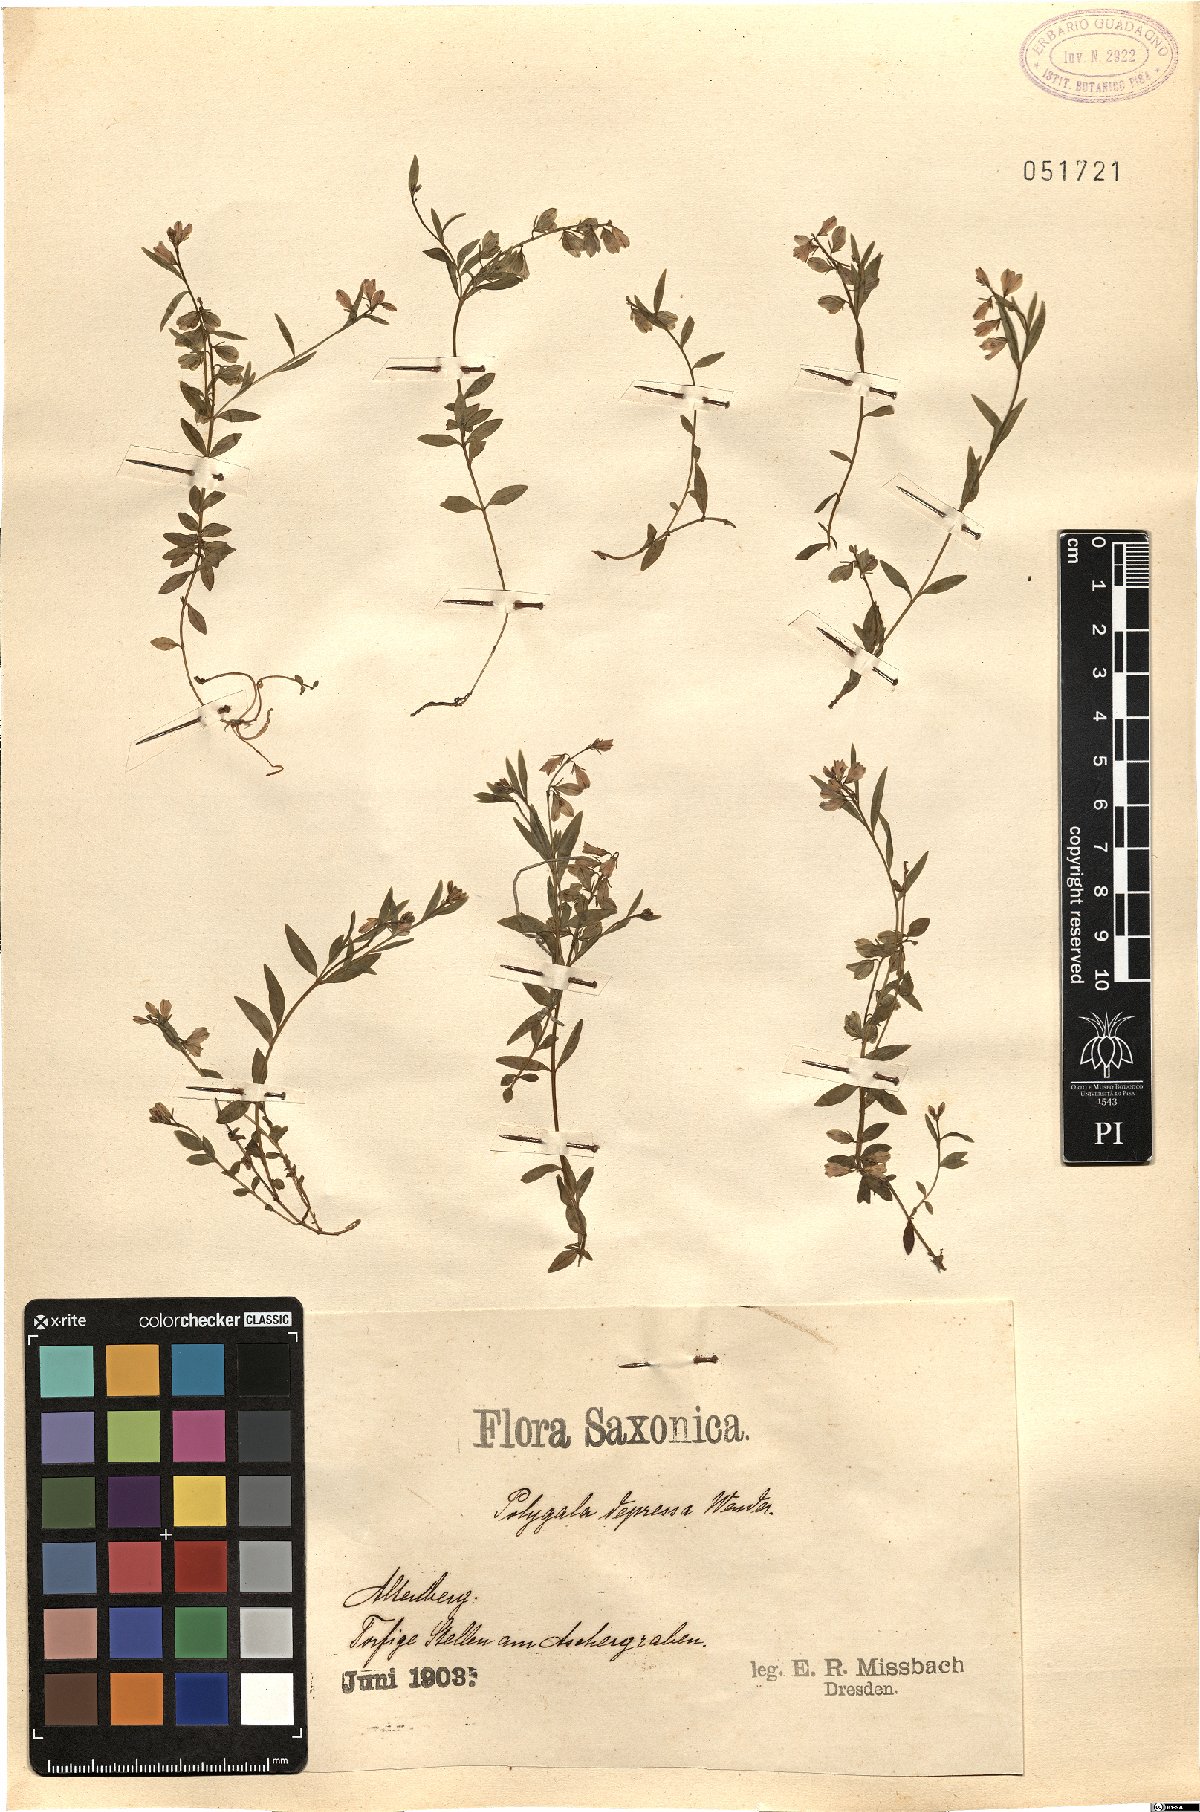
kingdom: Plantae
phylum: Tracheophyta
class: Magnoliopsida
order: Fabales
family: Polygalaceae
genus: Polygala
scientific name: Polygala serpyllifolia
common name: Heath milkwort
